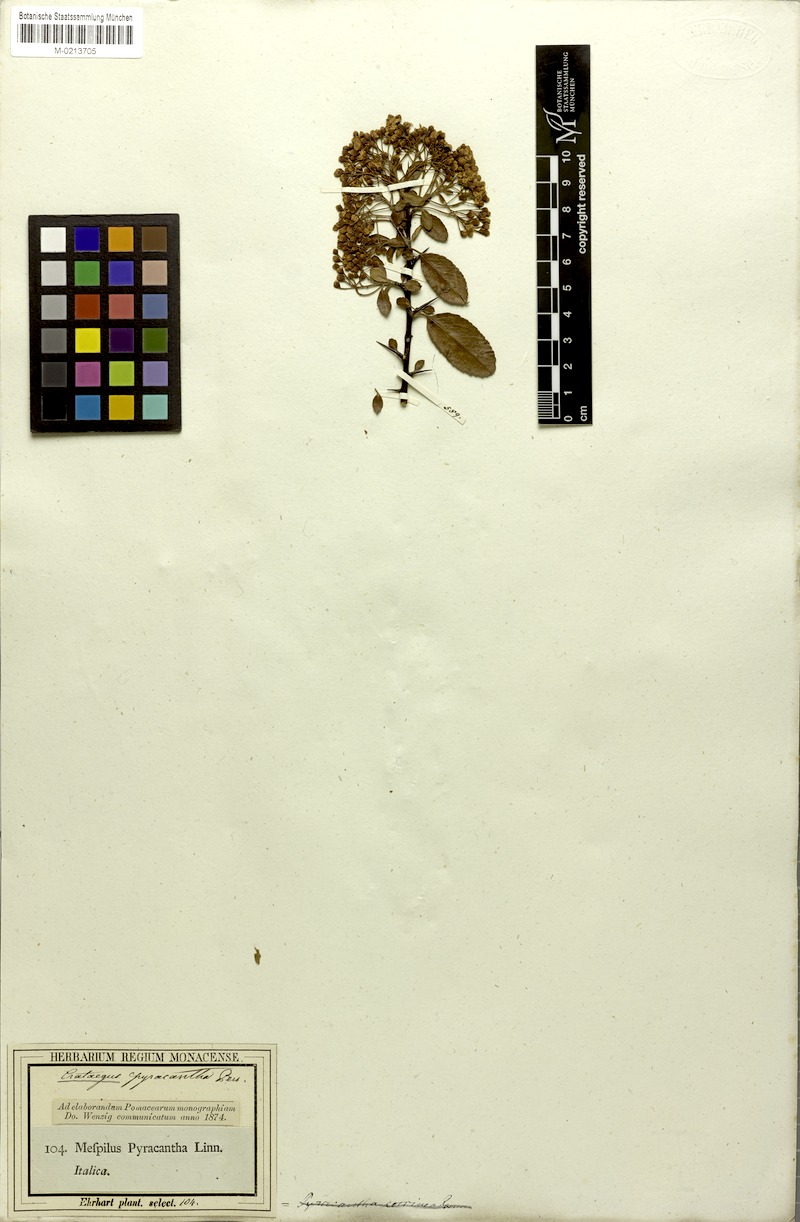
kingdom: Plantae
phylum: Tracheophyta
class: Magnoliopsida
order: Rosales
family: Rosaceae
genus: Pyracantha
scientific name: Pyracantha coccinea
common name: Firethorn
